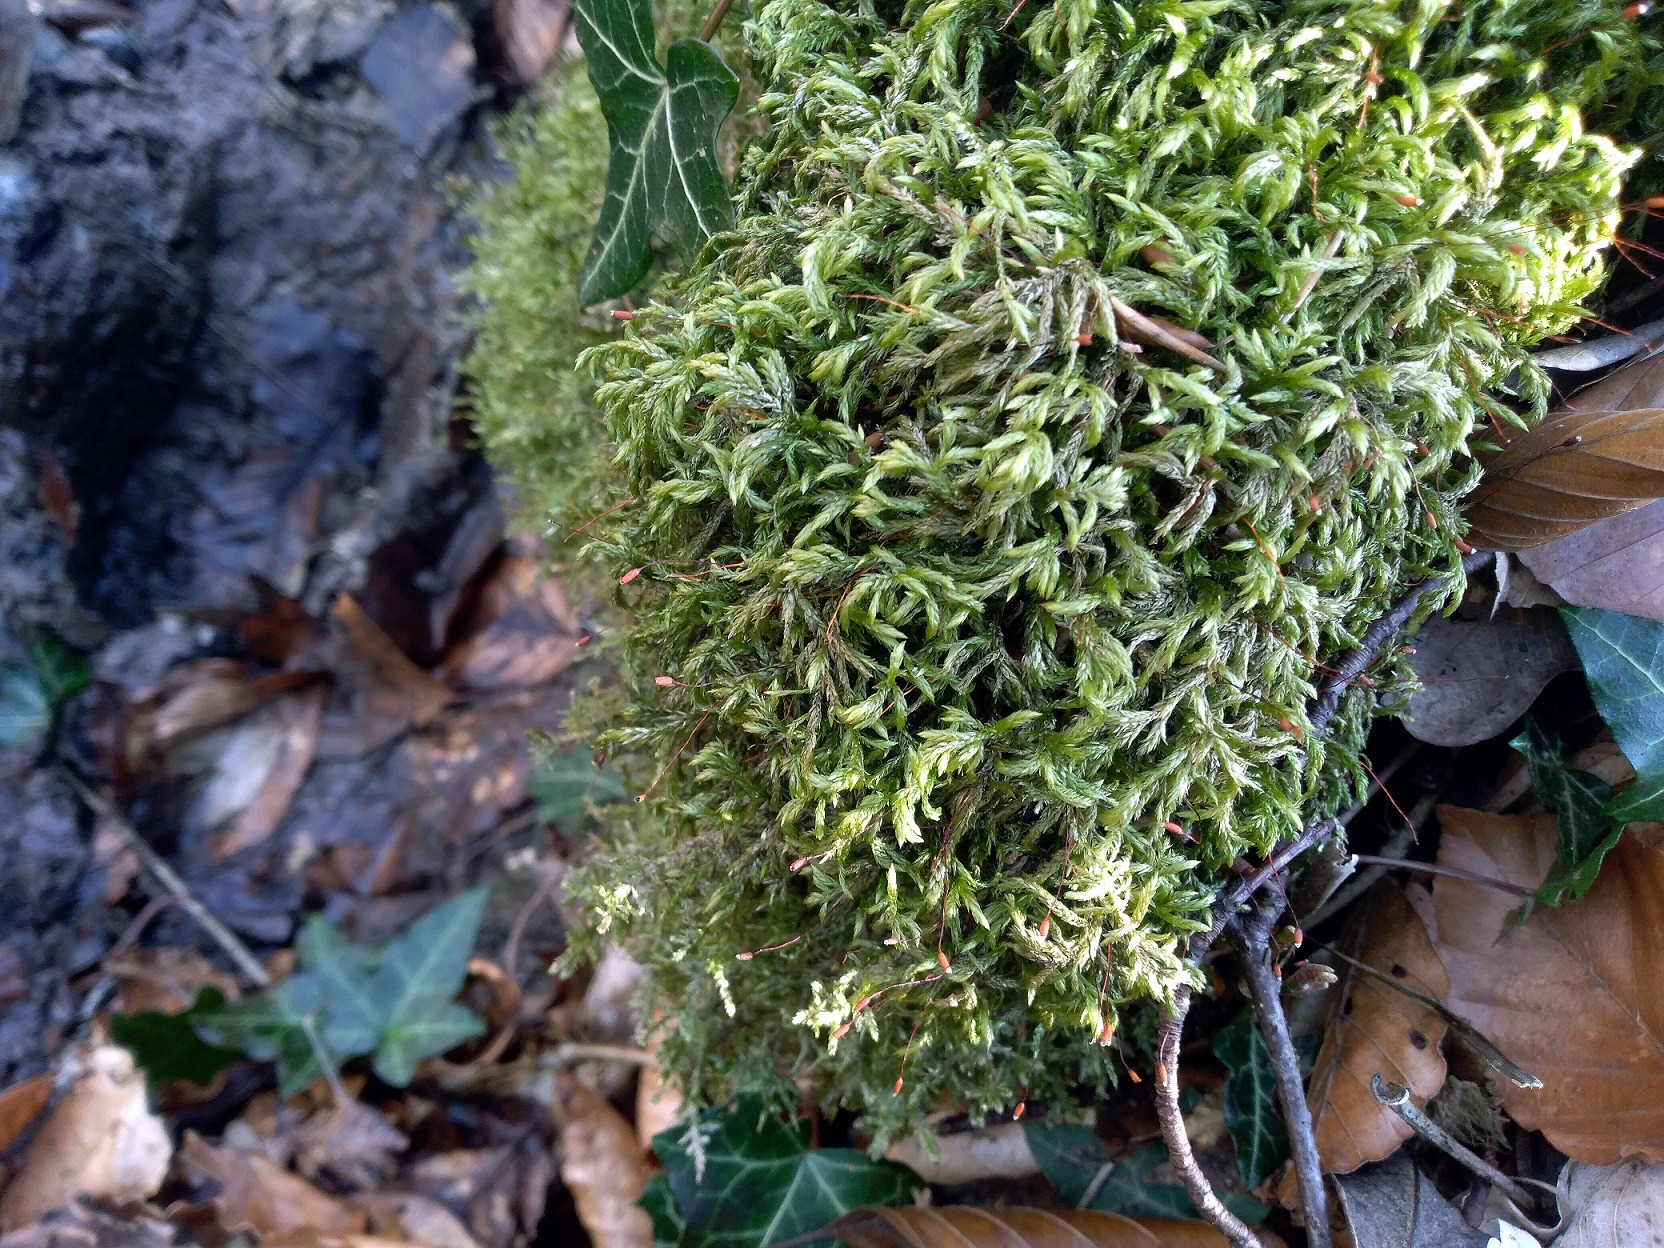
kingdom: Plantae
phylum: Bryophyta
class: Bryopsida
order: Hypnales
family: Lembophyllaceae
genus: Isothecium
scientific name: Isothecium alopecuroides
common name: Stor stammemos
